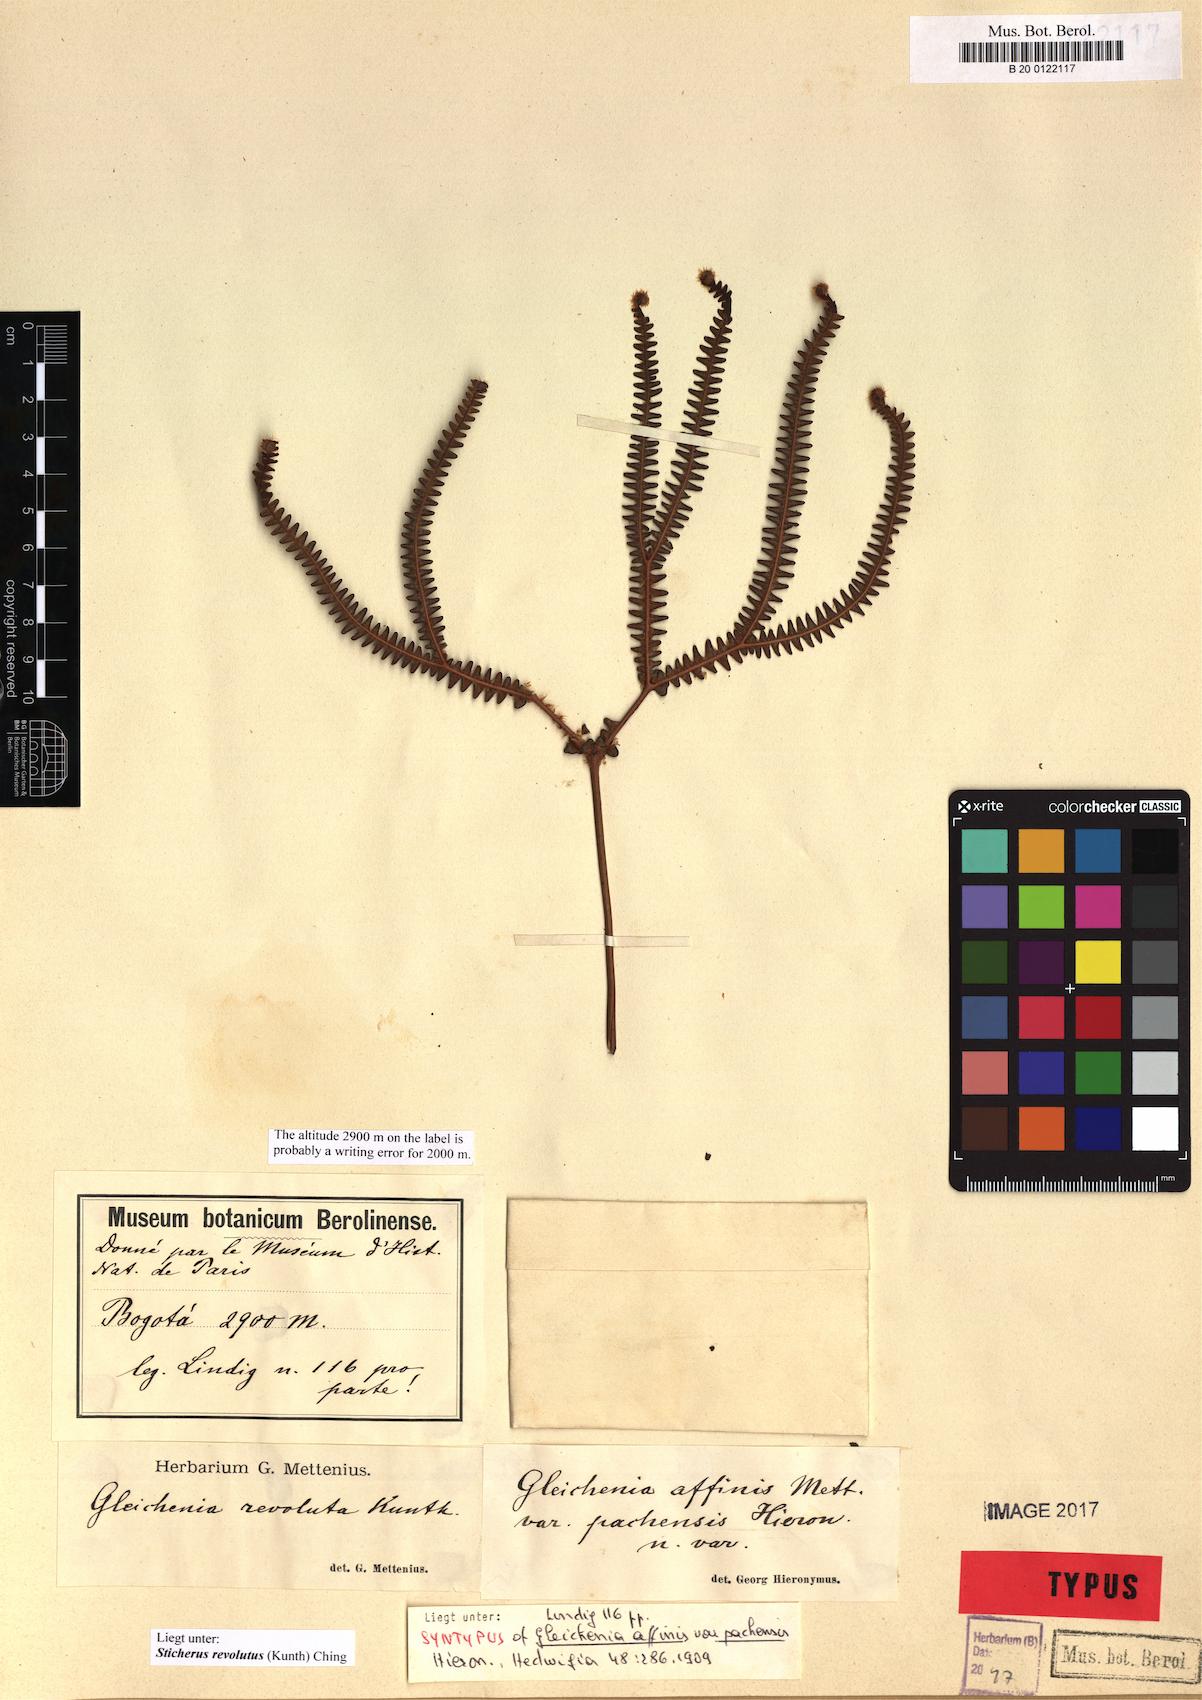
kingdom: Plantae
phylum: Tracheophyta
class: Polypodiopsida
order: Gleicheniales
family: Gleicheniaceae
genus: Sticherus
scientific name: Sticherus revolutus
